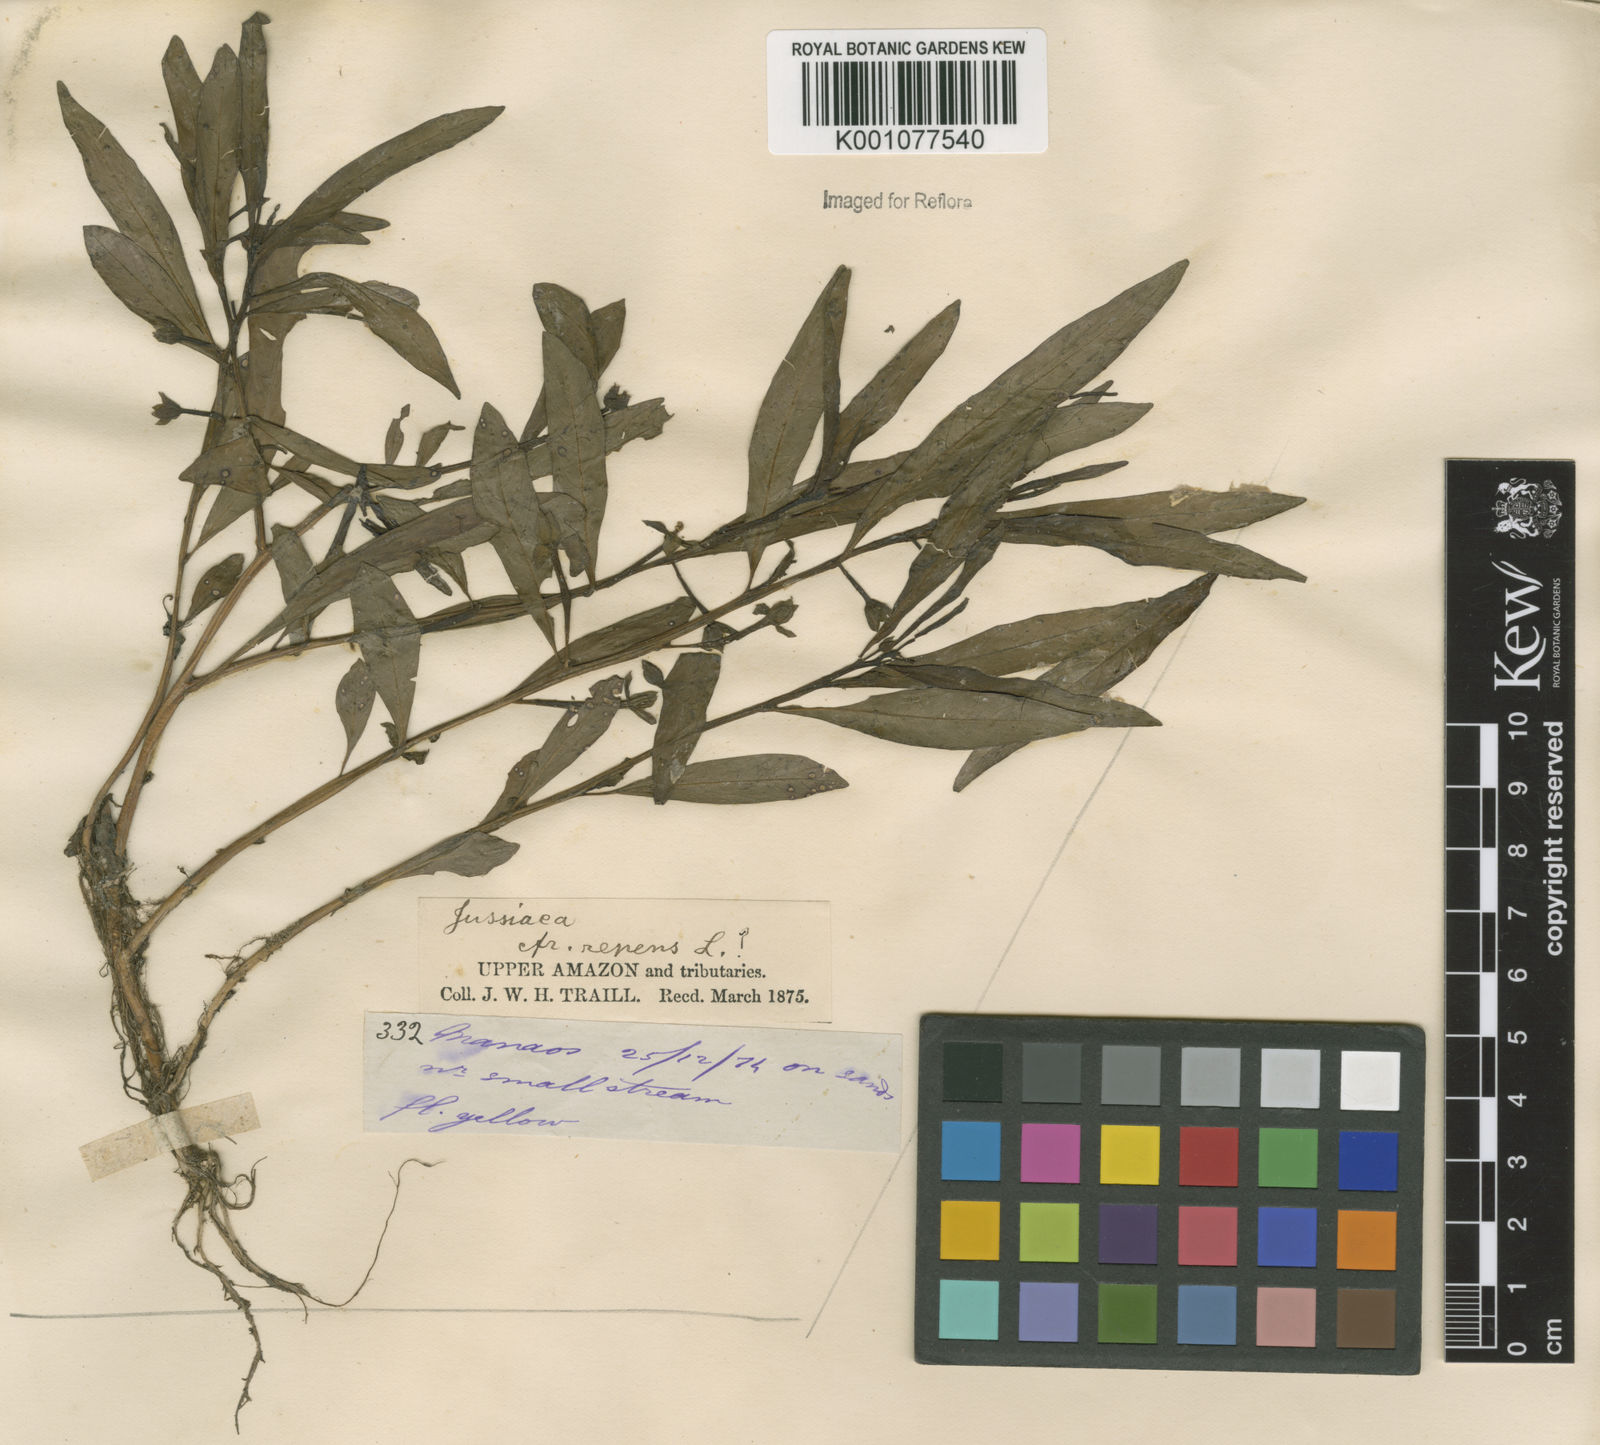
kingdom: Plantae
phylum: Tracheophyta
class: Magnoliopsida
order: Myrtales
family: Onagraceae
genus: Ludwigia
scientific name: Ludwigia adscendens
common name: Creeping water primrose
